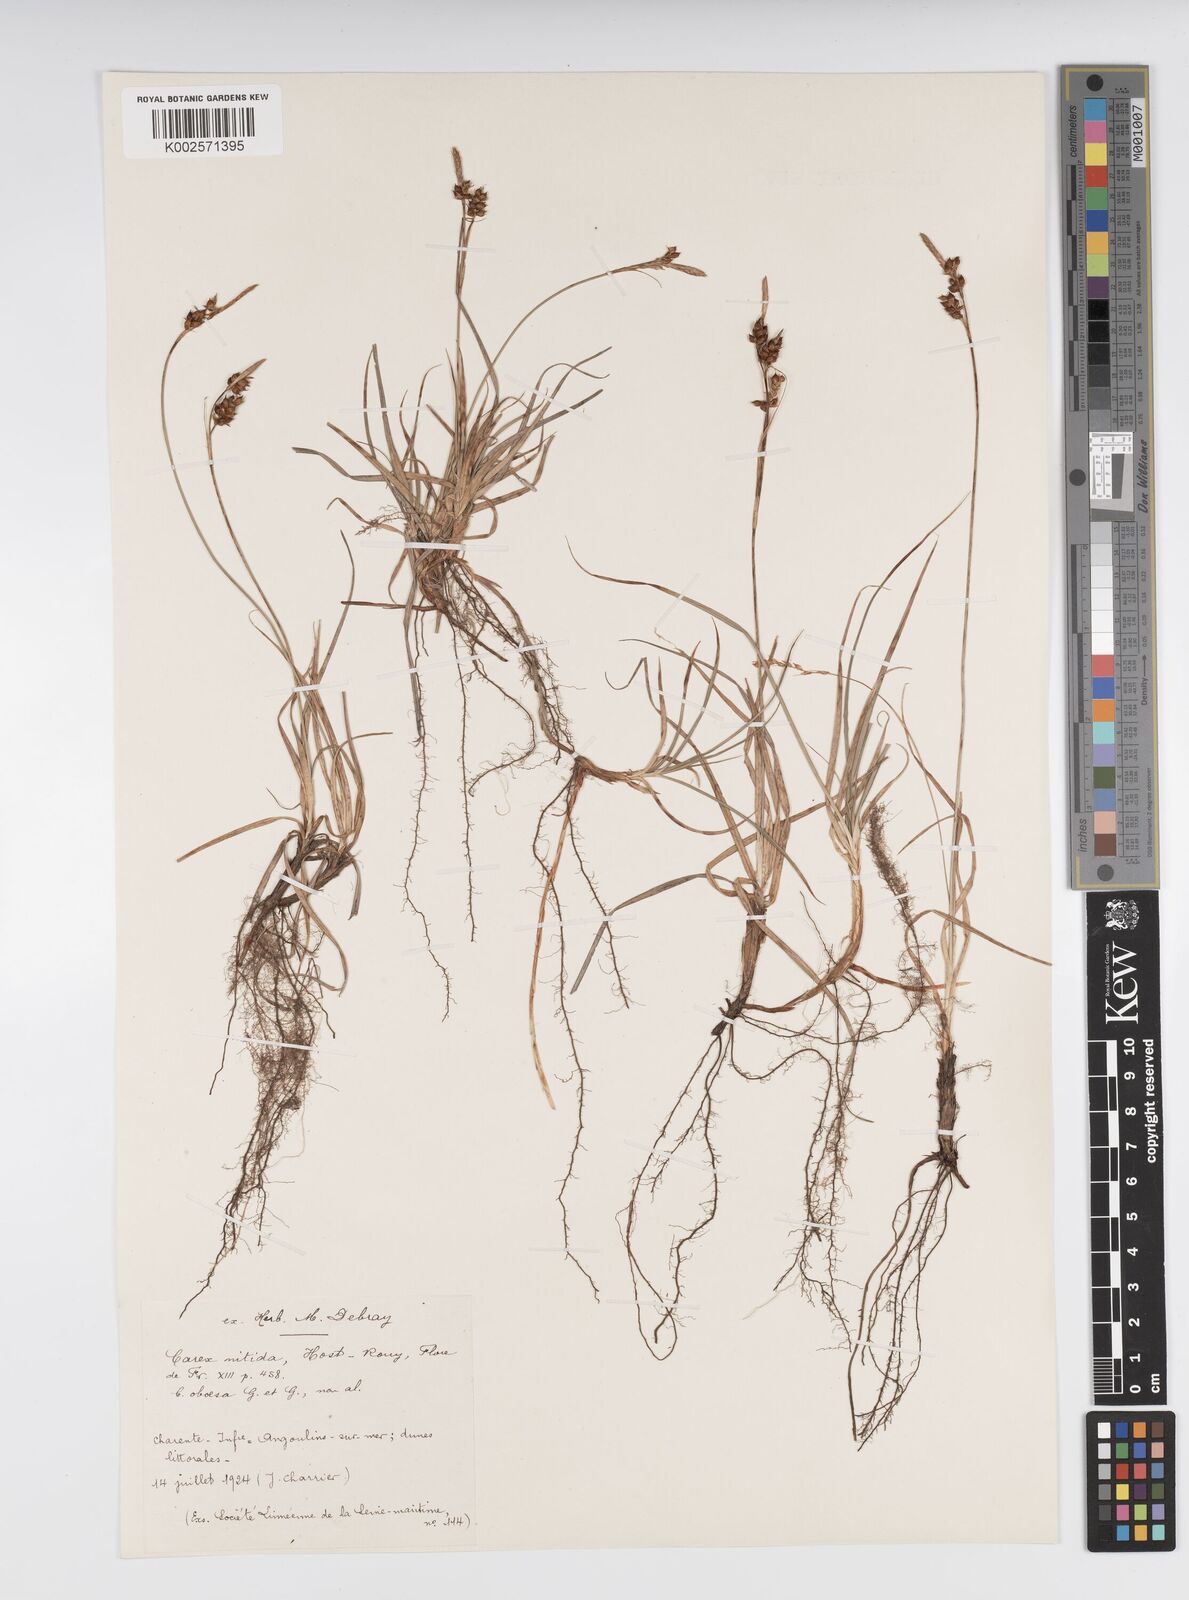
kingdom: Plantae
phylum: Tracheophyta
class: Liliopsida
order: Poales
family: Cyperaceae
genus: Carex
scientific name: Carex liparocarpos
